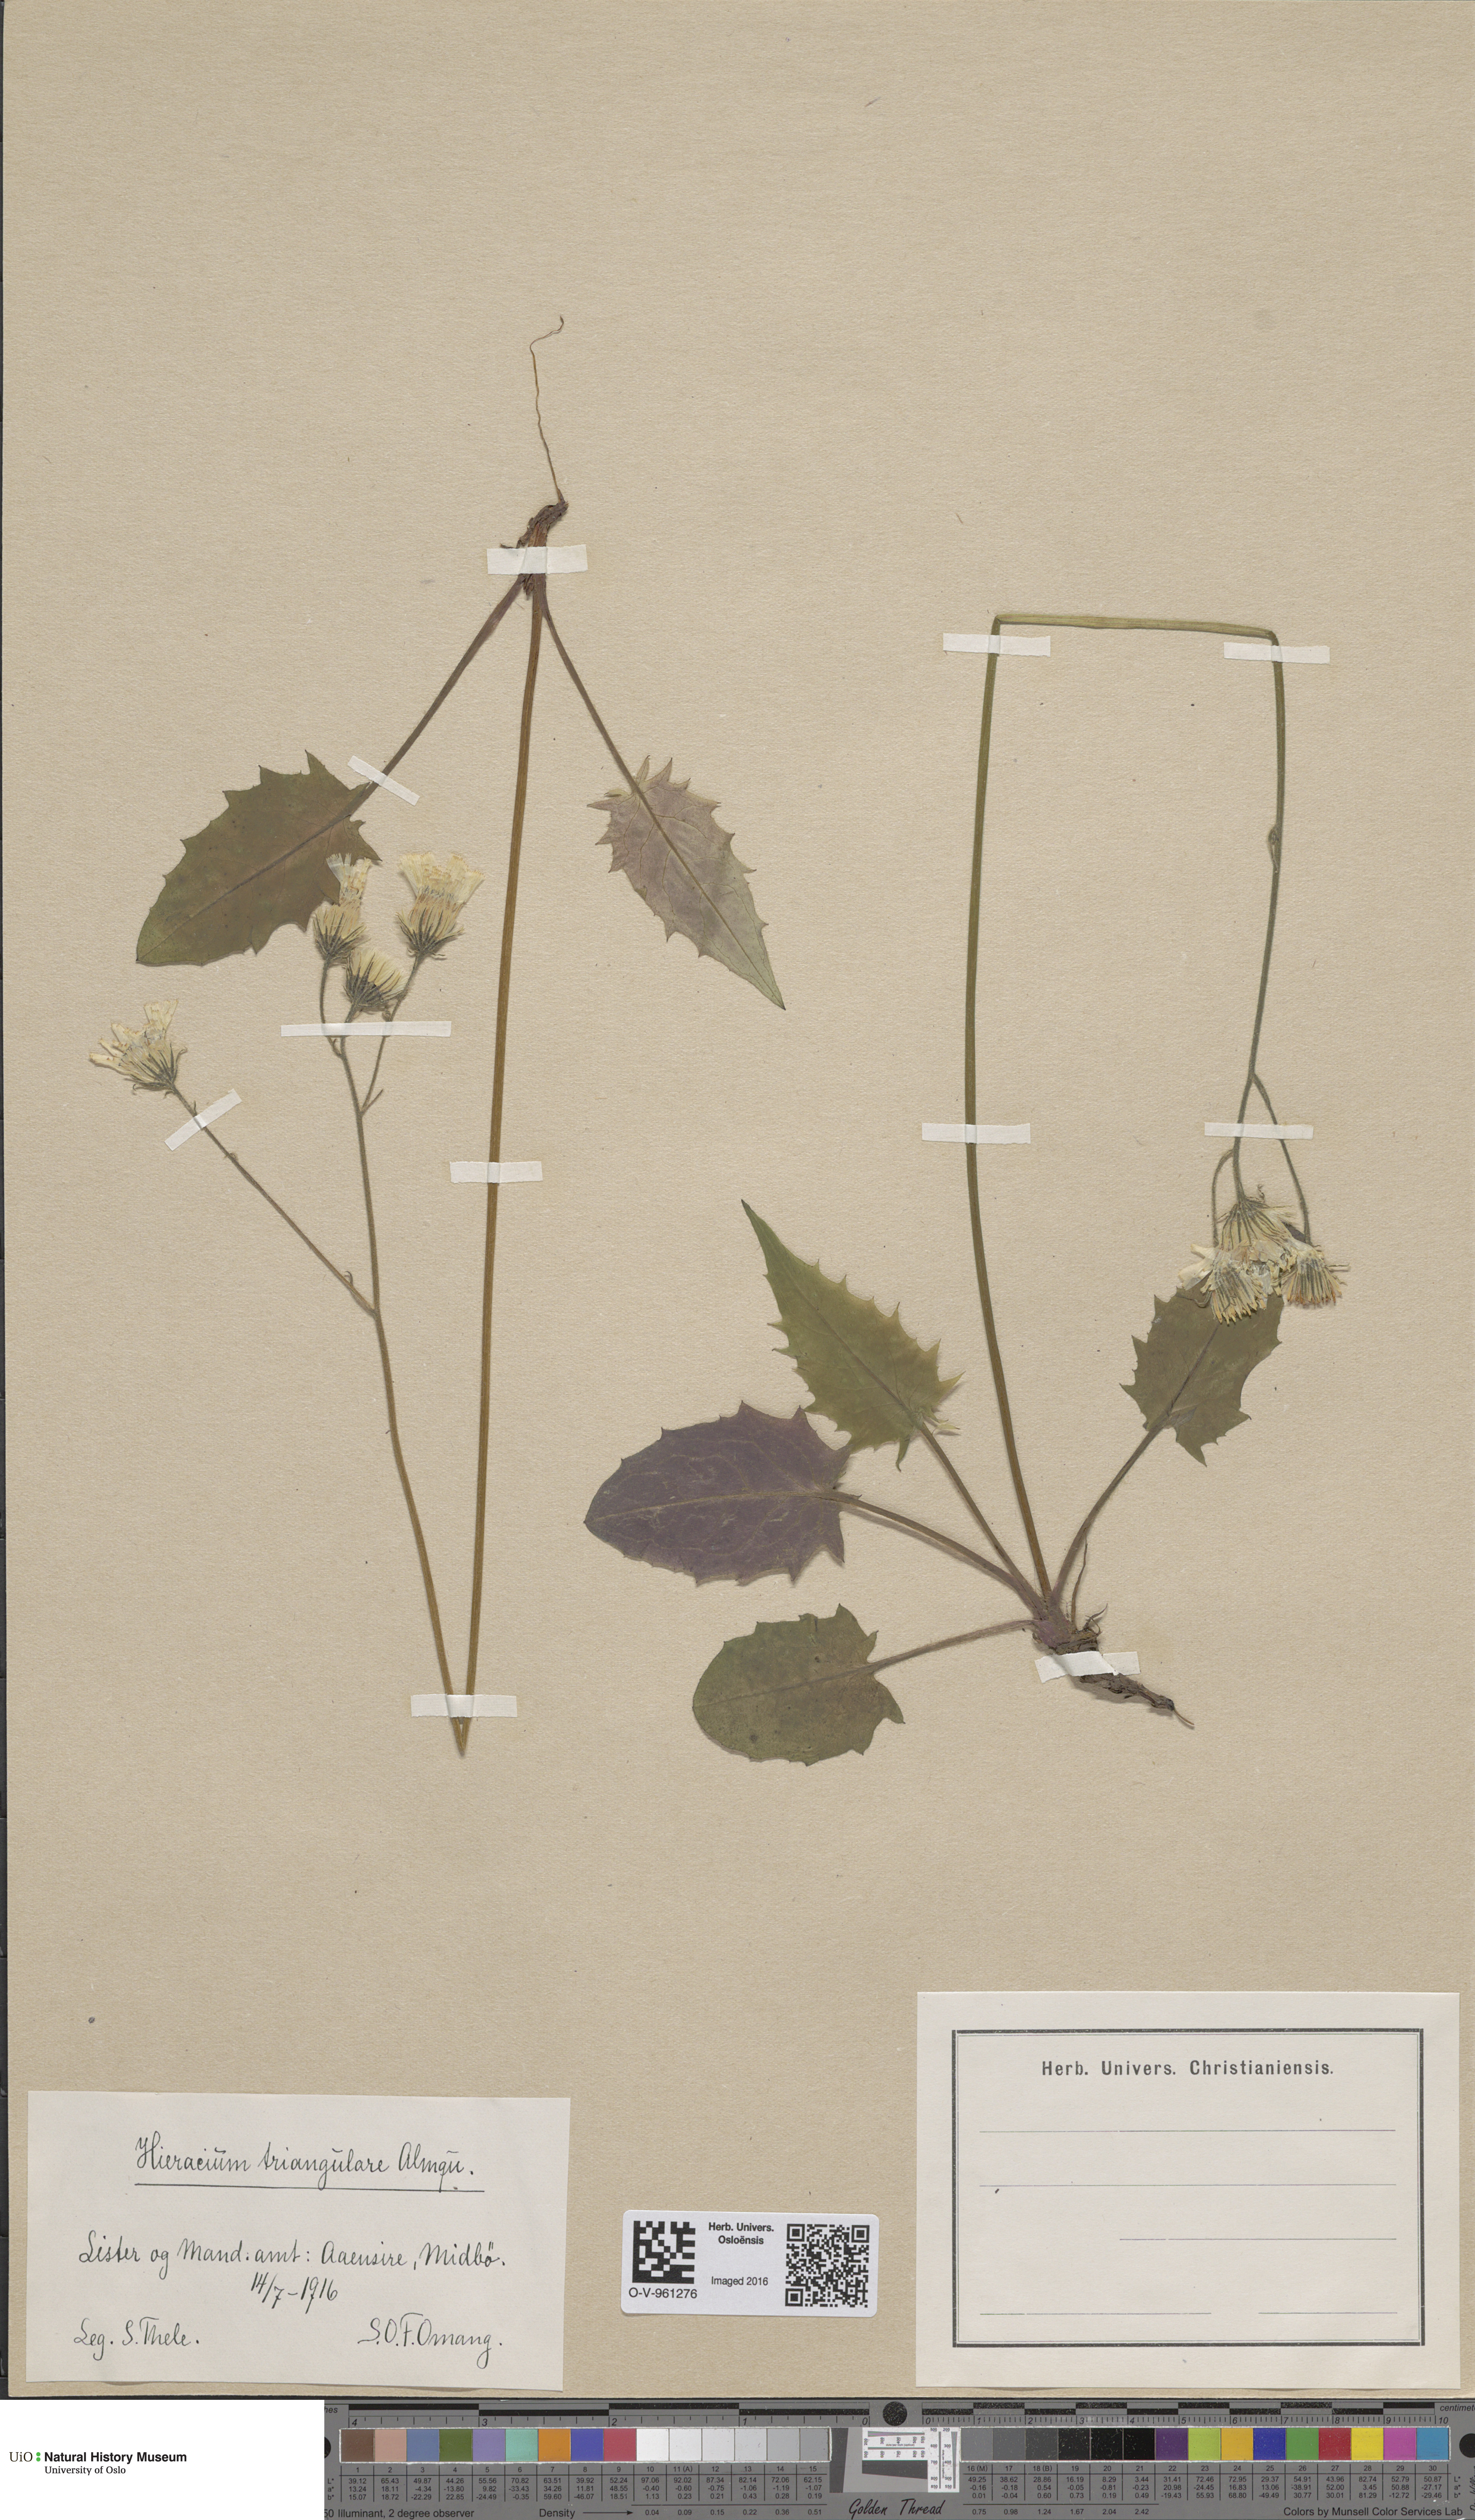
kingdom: Plantae
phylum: Tracheophyta
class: Magnoliopsida
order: Asterales
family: Asteraceae
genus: Hieracium
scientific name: Hieracium triangulare
